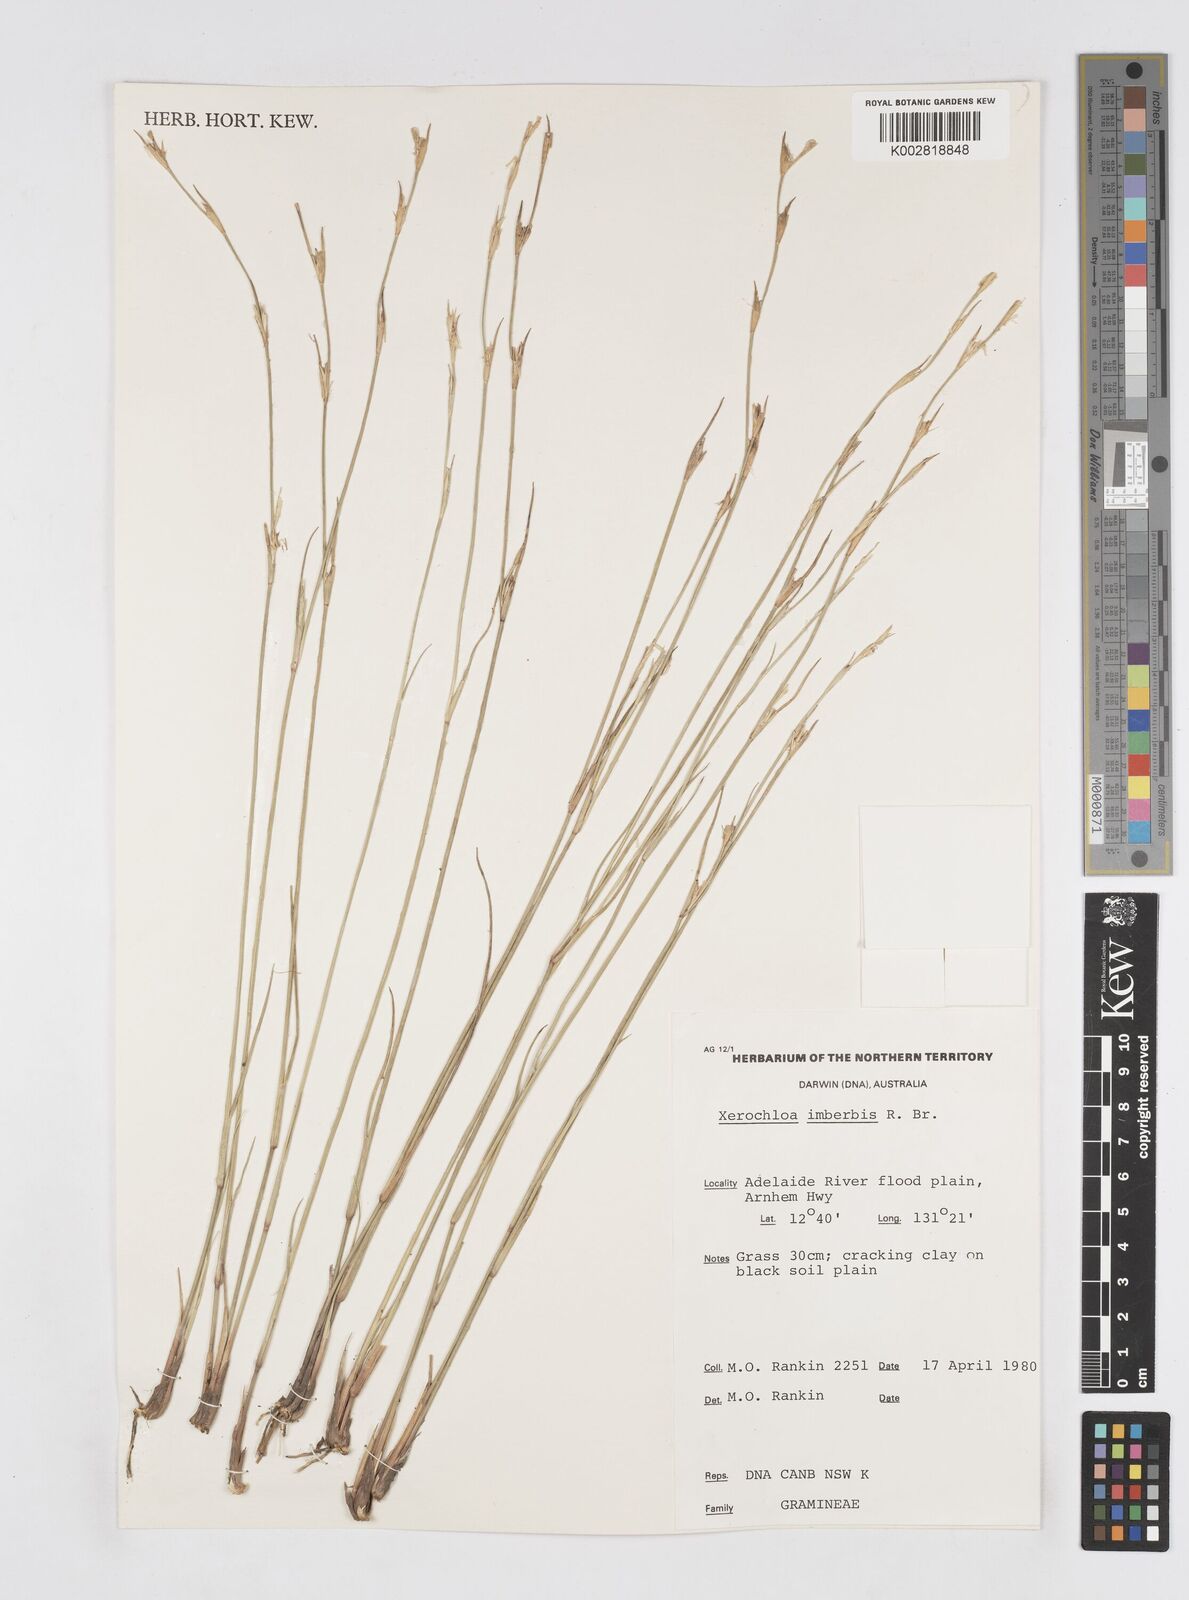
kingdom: Plantae
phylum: Tracheophyta
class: Liliopsida
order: Poales
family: Poaceae
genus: Xerochloa
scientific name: Xerochloa imberbis
